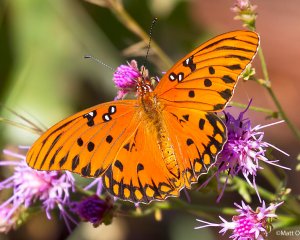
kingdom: Animalia
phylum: Arthropoda
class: Insecta
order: Lepidoptera
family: Nymphalidae
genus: Dione
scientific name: Dione vanillae
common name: Gulf Fritillary
